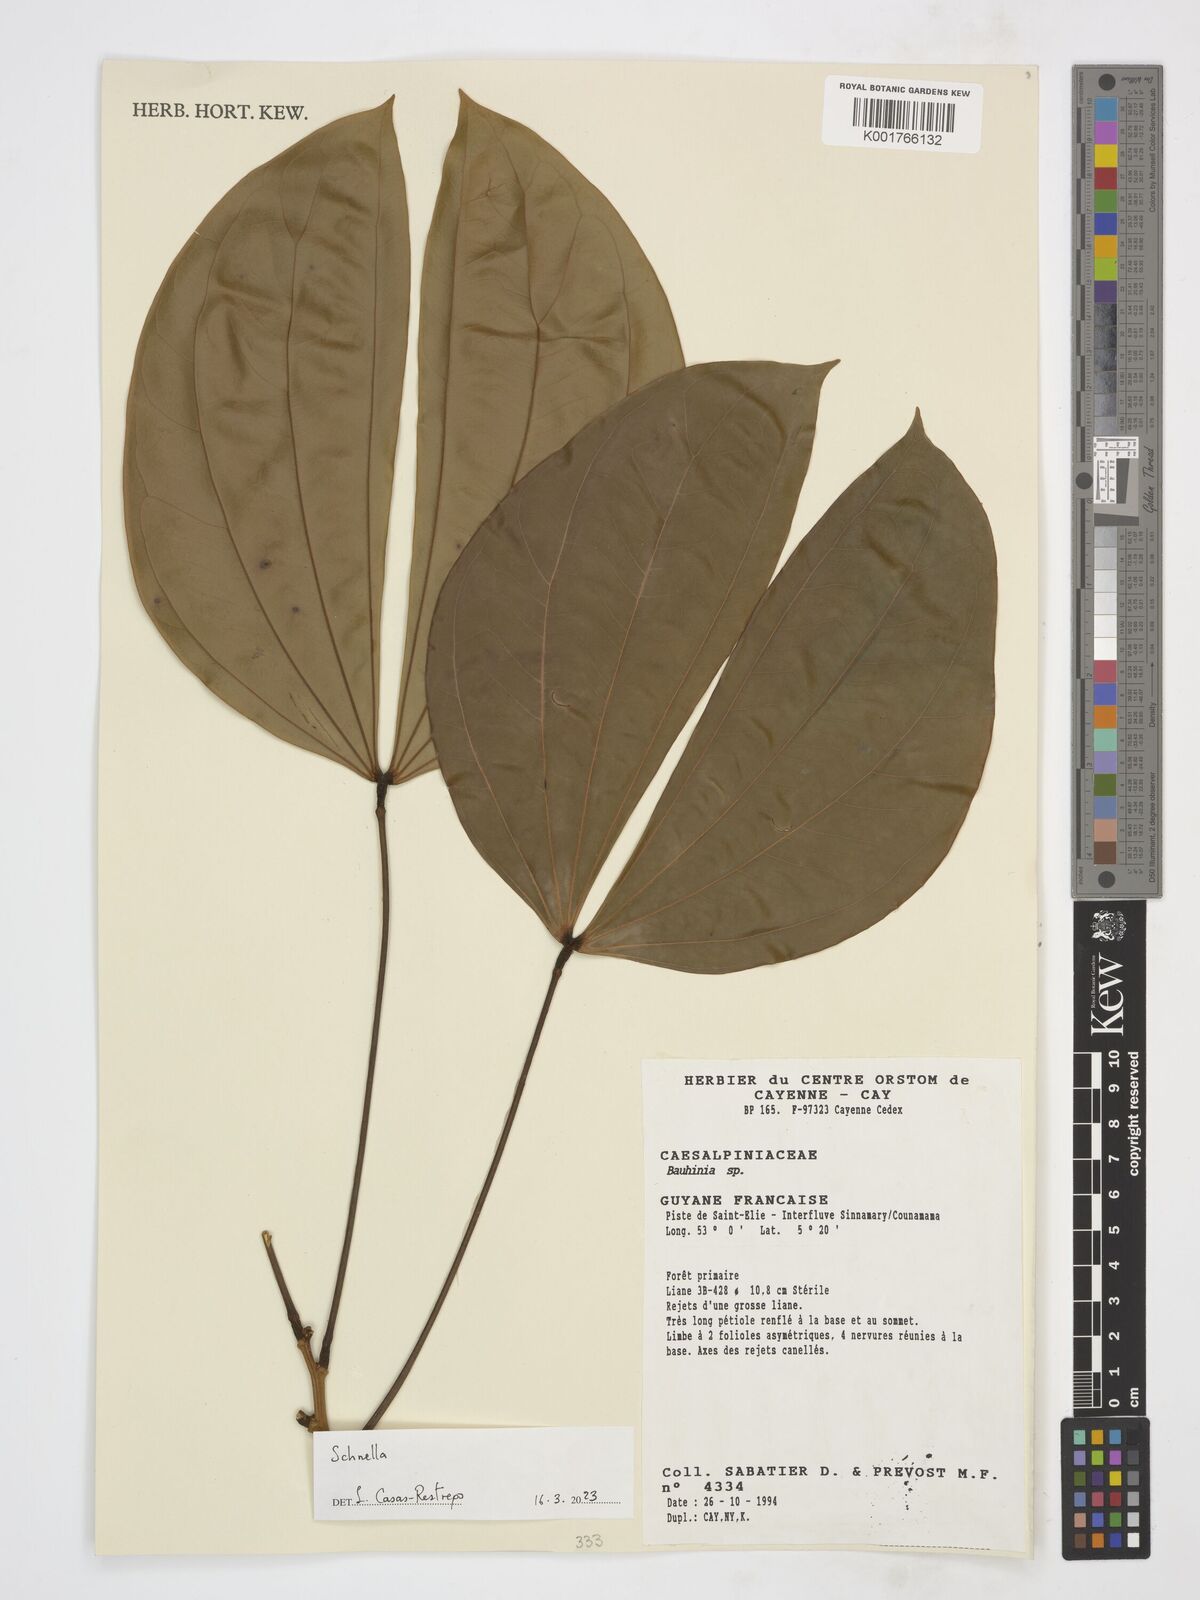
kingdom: Plantae
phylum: Tracheophyta
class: Magnoliopsida
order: Fabales
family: Fabaceae
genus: Schnella
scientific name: Schnella
